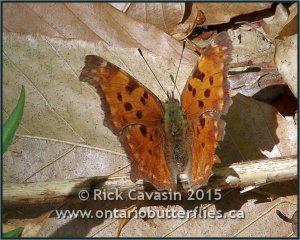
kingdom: Animalia
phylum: Arthropoda
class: Insecta
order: Lepidoptera
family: Nymphalidae
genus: Polygonia
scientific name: Polygonia comma
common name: Eastern Comma
